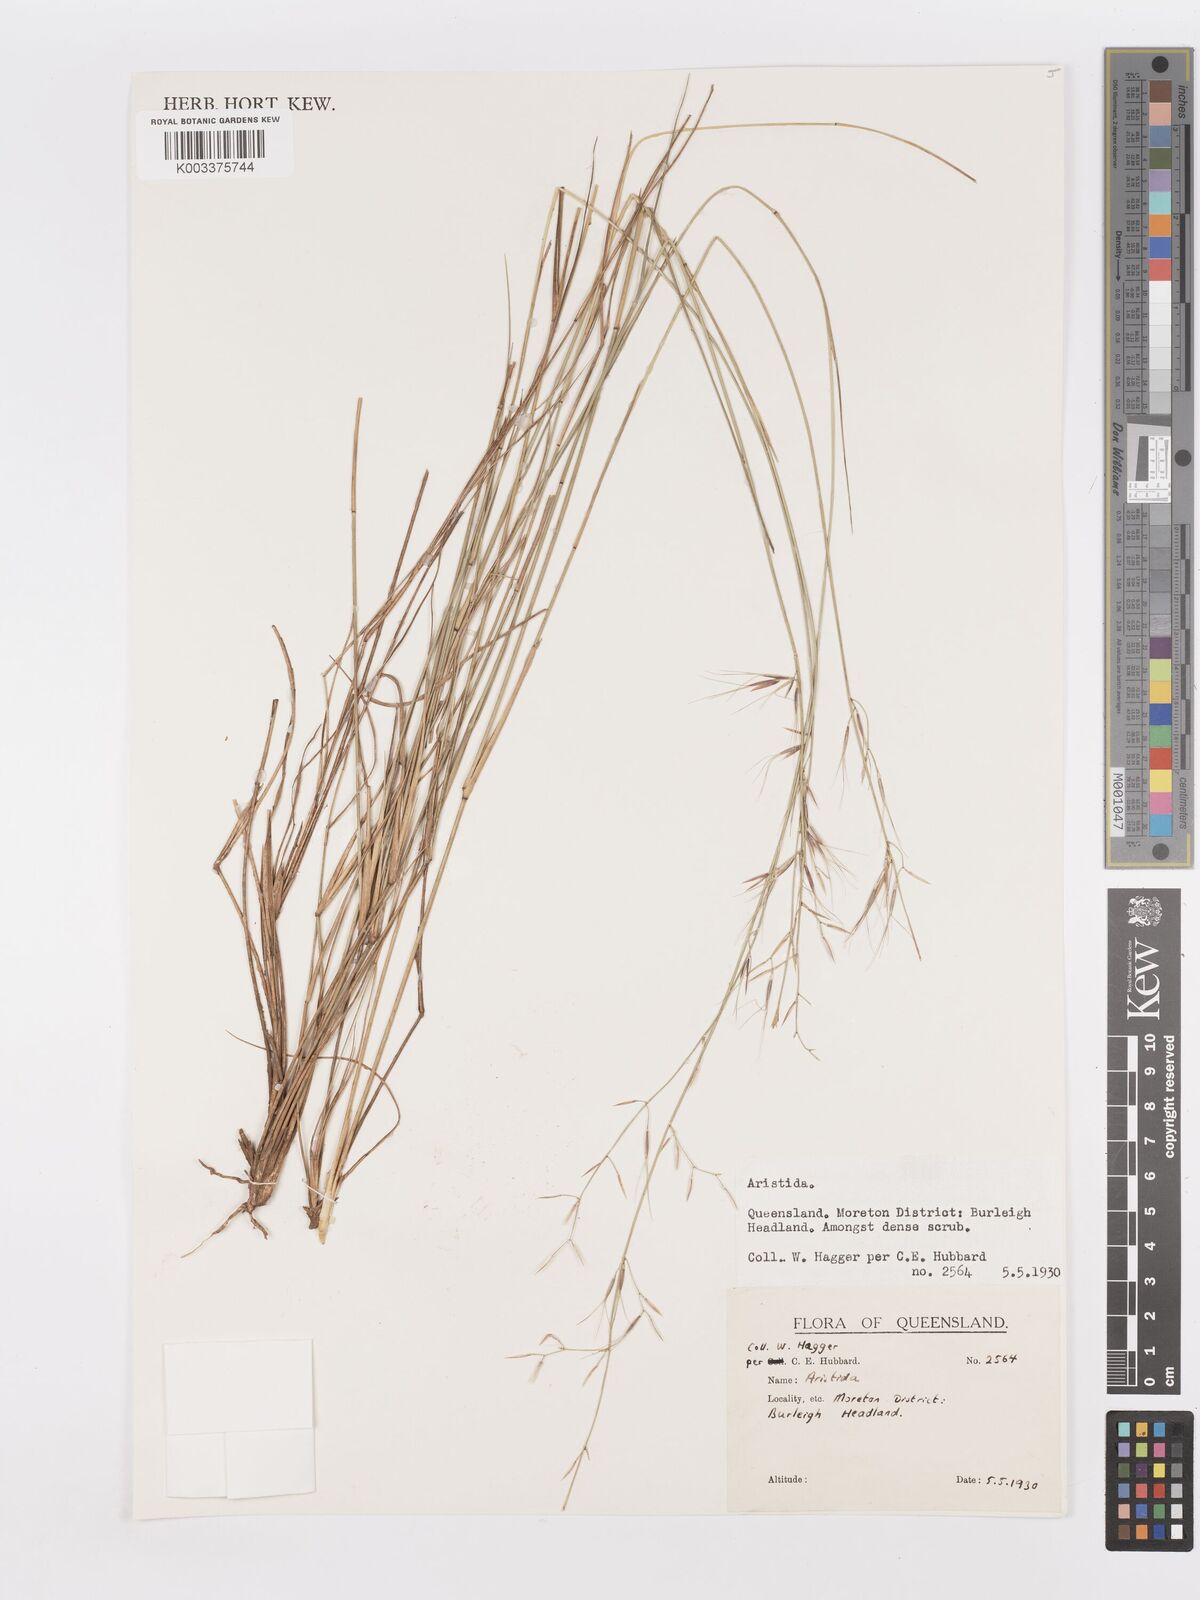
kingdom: Plantae
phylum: Tracheophyta
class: Liliopsida
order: Poales
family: Poaceae
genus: Aristida
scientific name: Aristida
